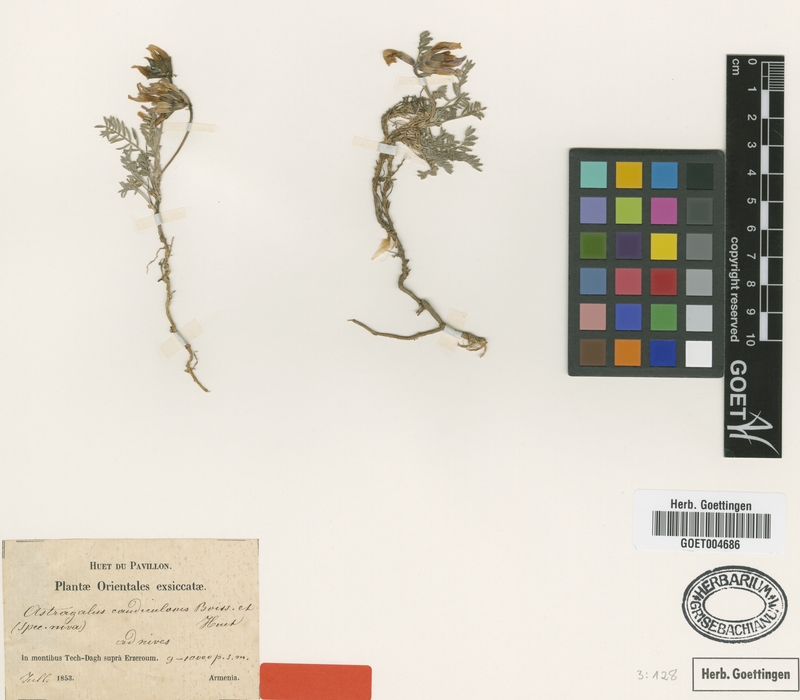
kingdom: Plantae
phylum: Tracheophyta
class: Magnoliopsida
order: Fabales
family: Fabaceae
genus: Astragalus
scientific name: Astragalus caudiculosus
